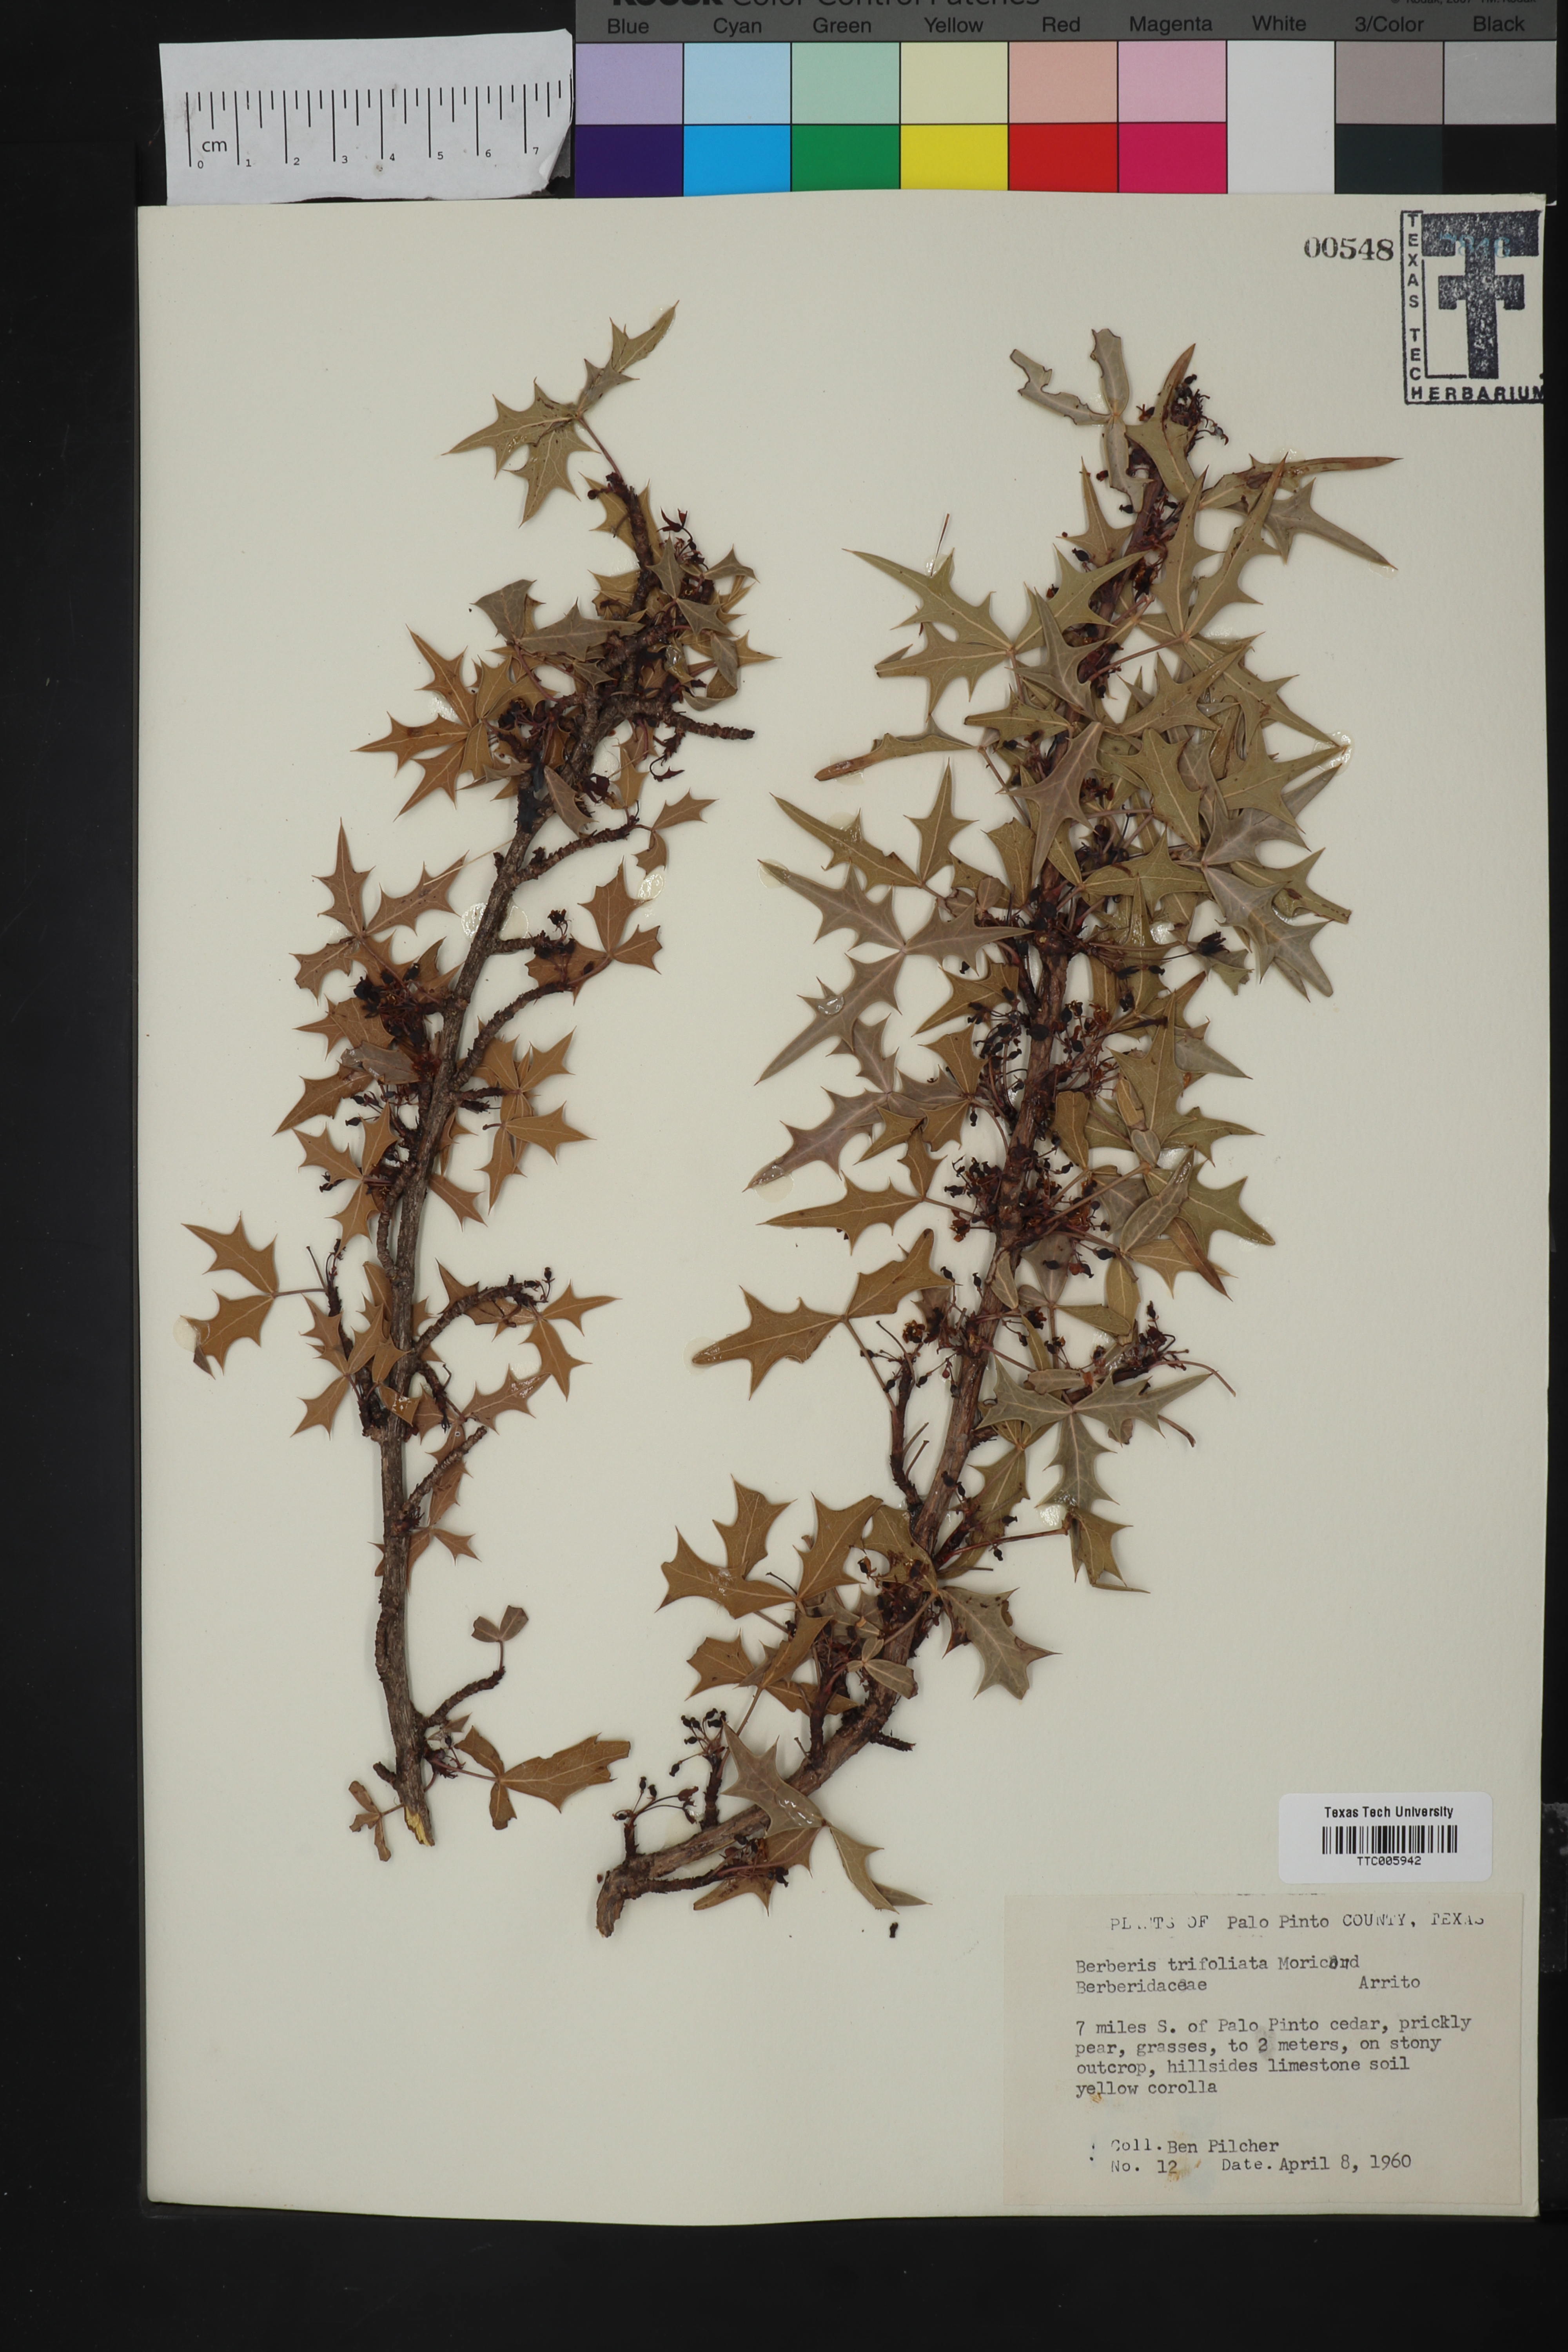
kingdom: Plantae
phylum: Tracheophyta
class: Magnoliopsida
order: Ranunculales
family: Berberidaceae
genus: Alloberberis
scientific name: Alloberberis trifoliolata
